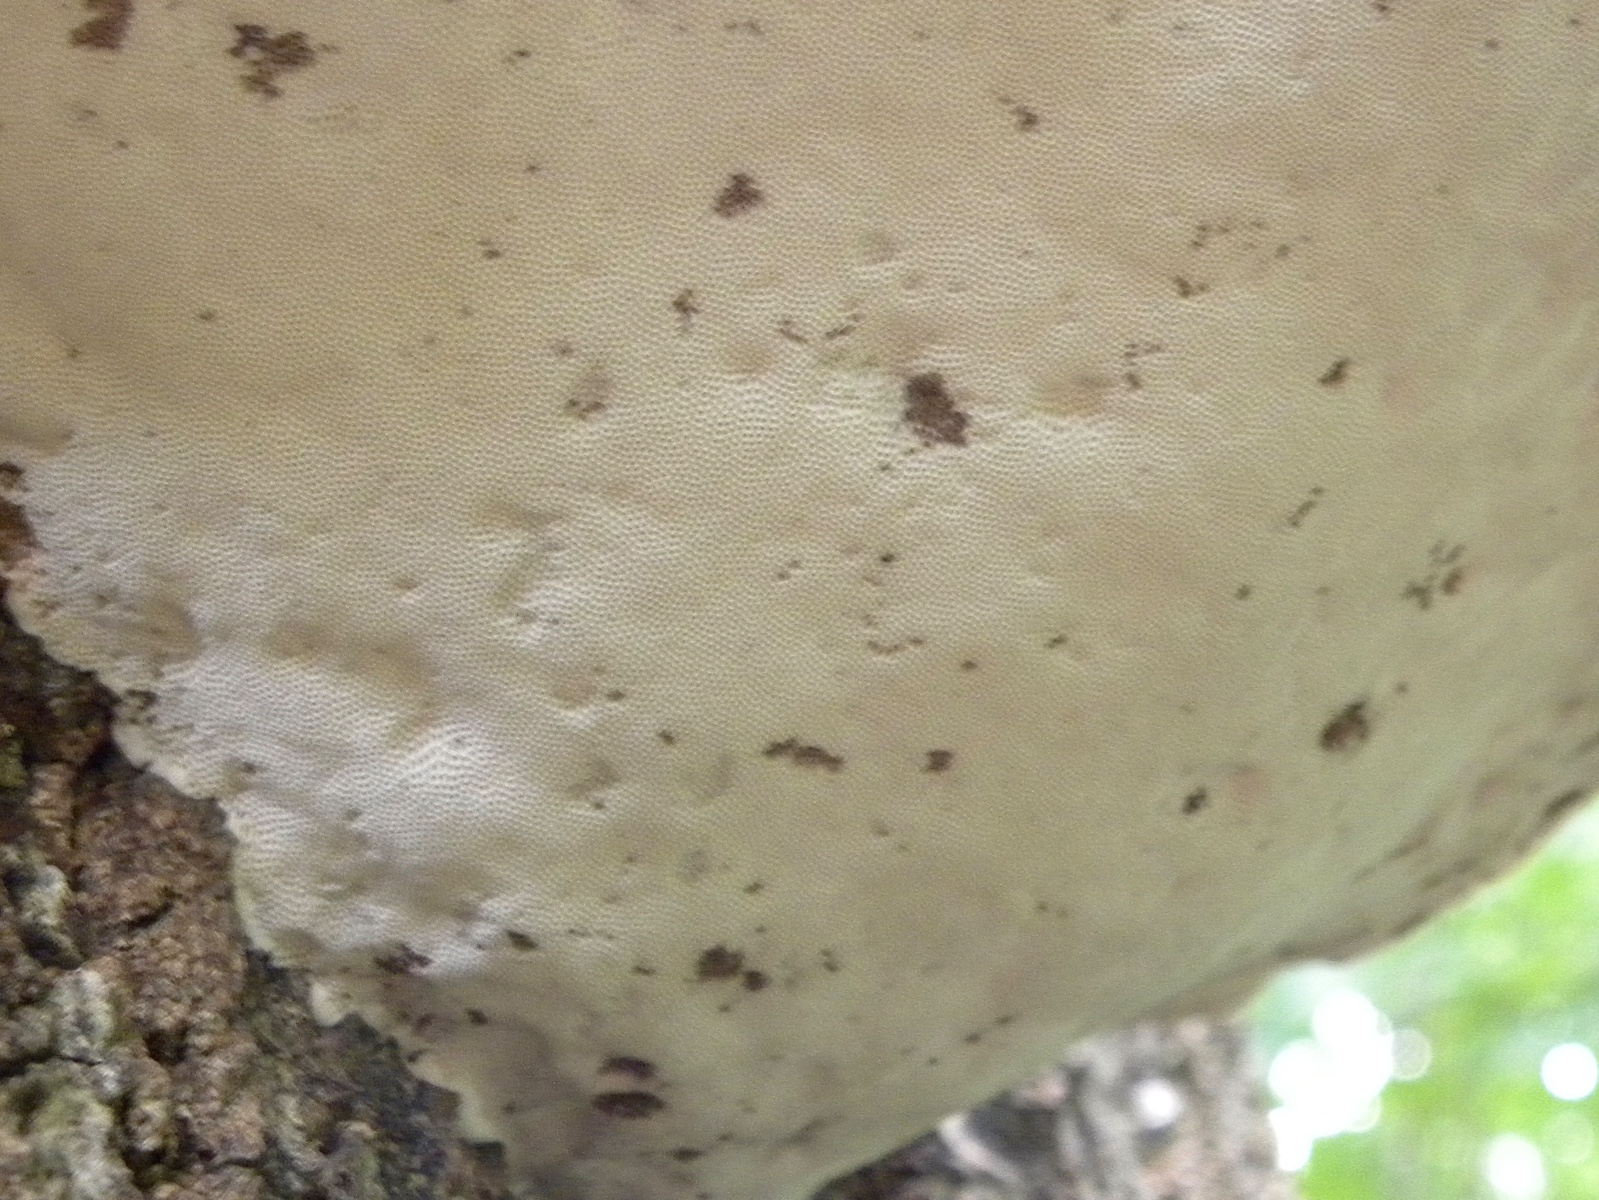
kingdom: Fungi
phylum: Basidiomycota
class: Agaricomycetes
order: Polyporales
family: Polyporaceae
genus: Fomes
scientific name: Fomes fomentarius
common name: tøndersvamp
